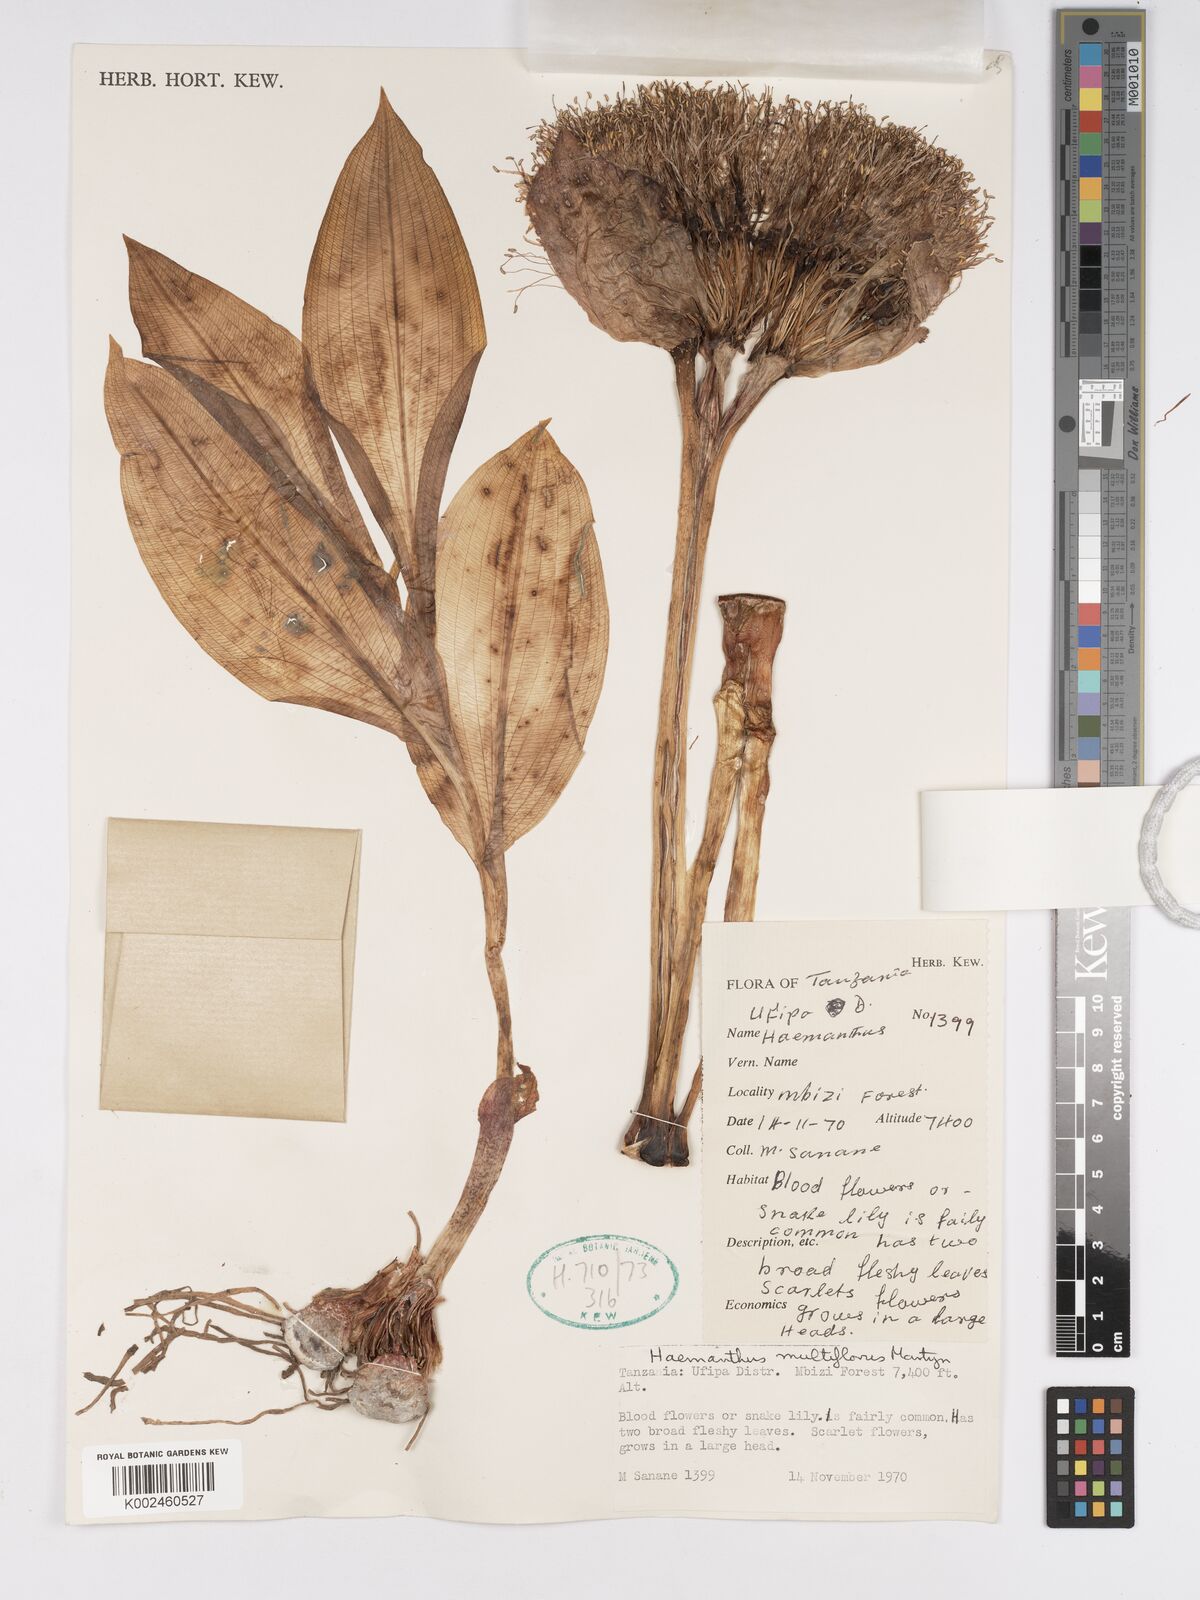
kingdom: Plantae
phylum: Tracheophyta
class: Liliopsida
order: Asparagales
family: Amaryllidaceae
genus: Scadoxus
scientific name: Scadoxus puniceus
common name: Royal-paintbrush
